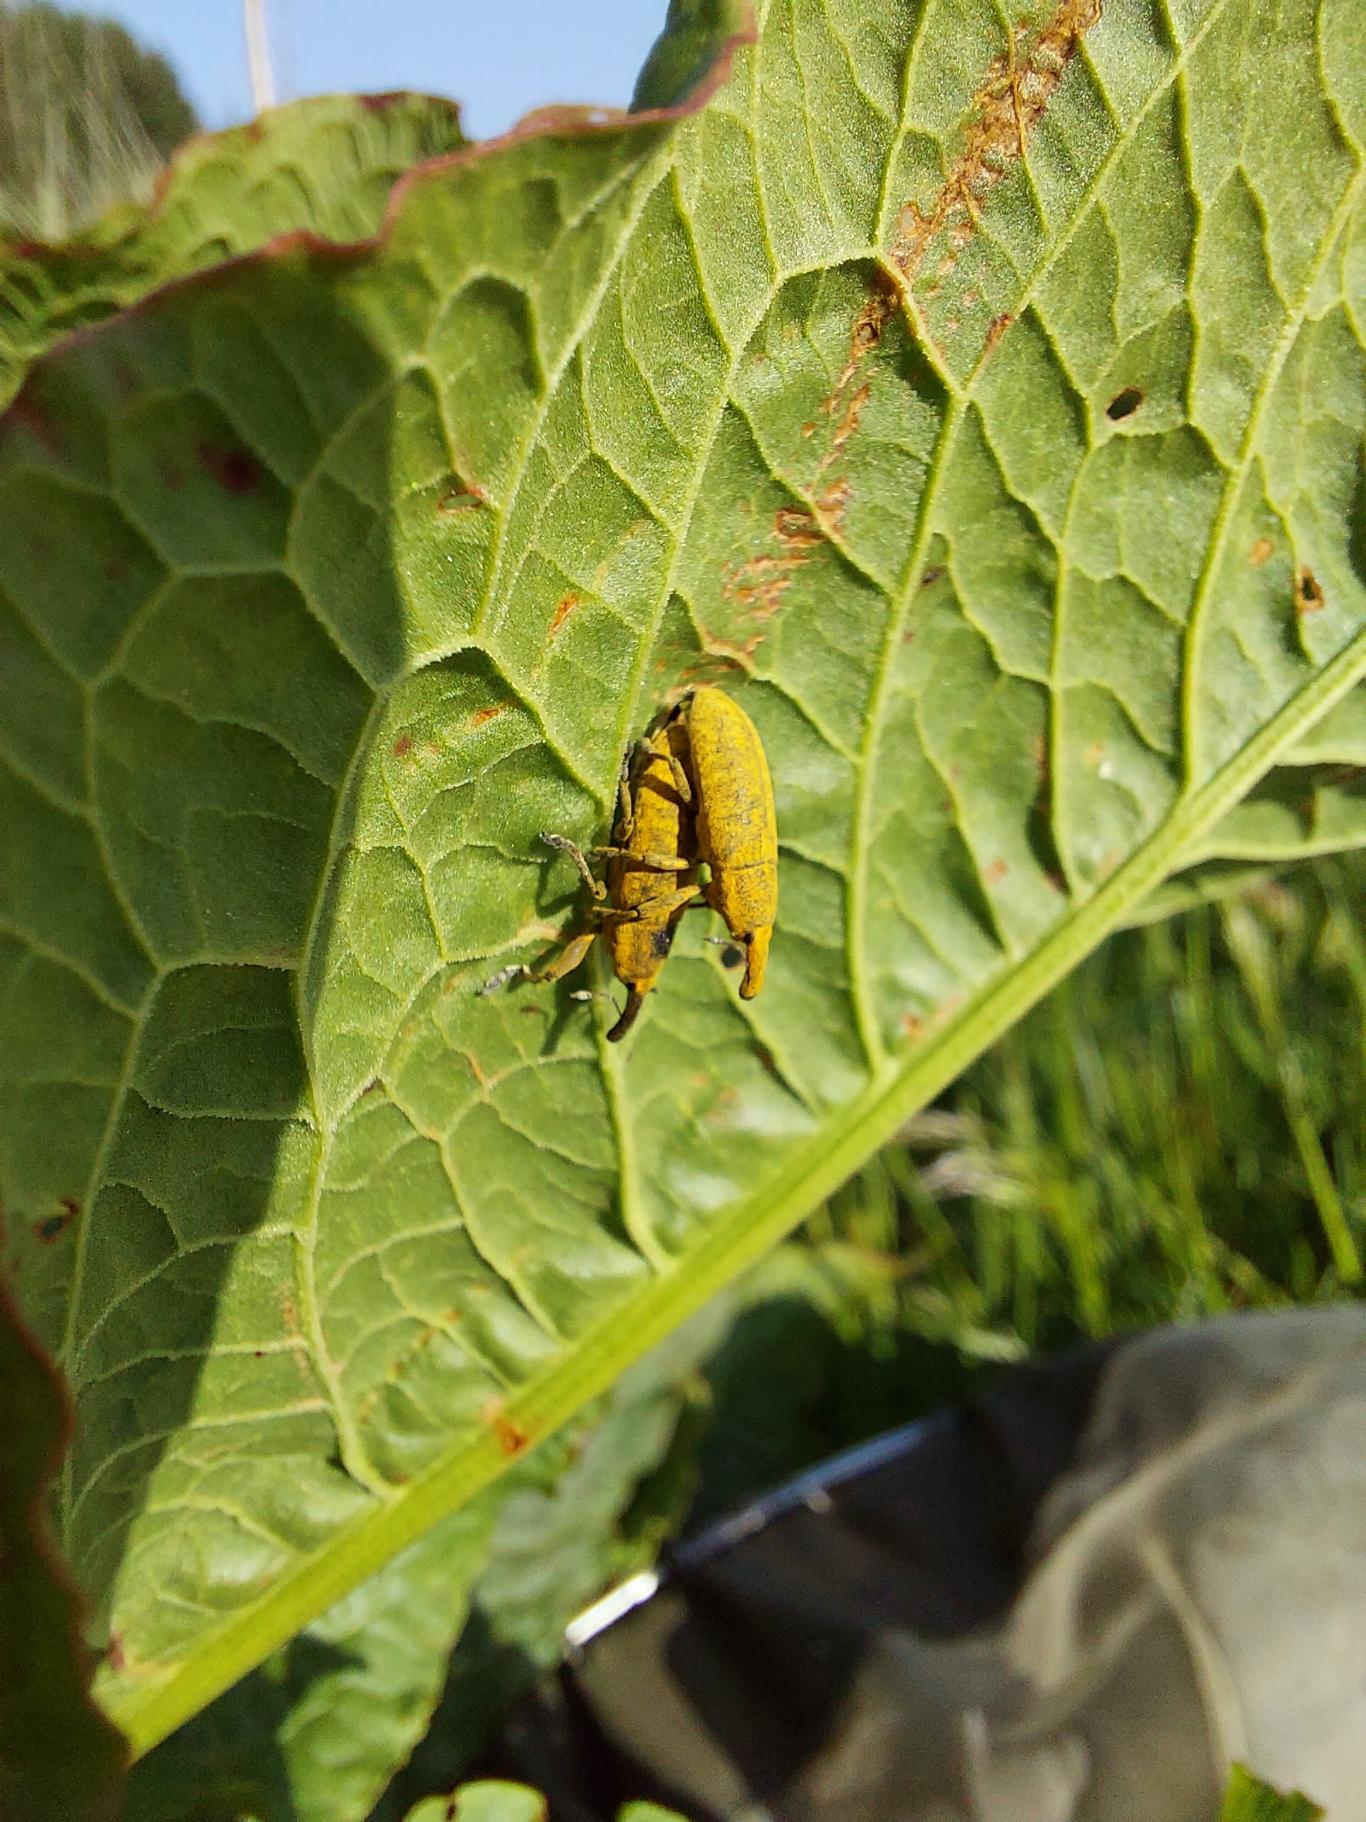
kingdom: Animalia
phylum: Arthropoda
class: Insecta
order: Coleoptera
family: Curculionidae
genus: Lixus
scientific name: Lixus bardanae
